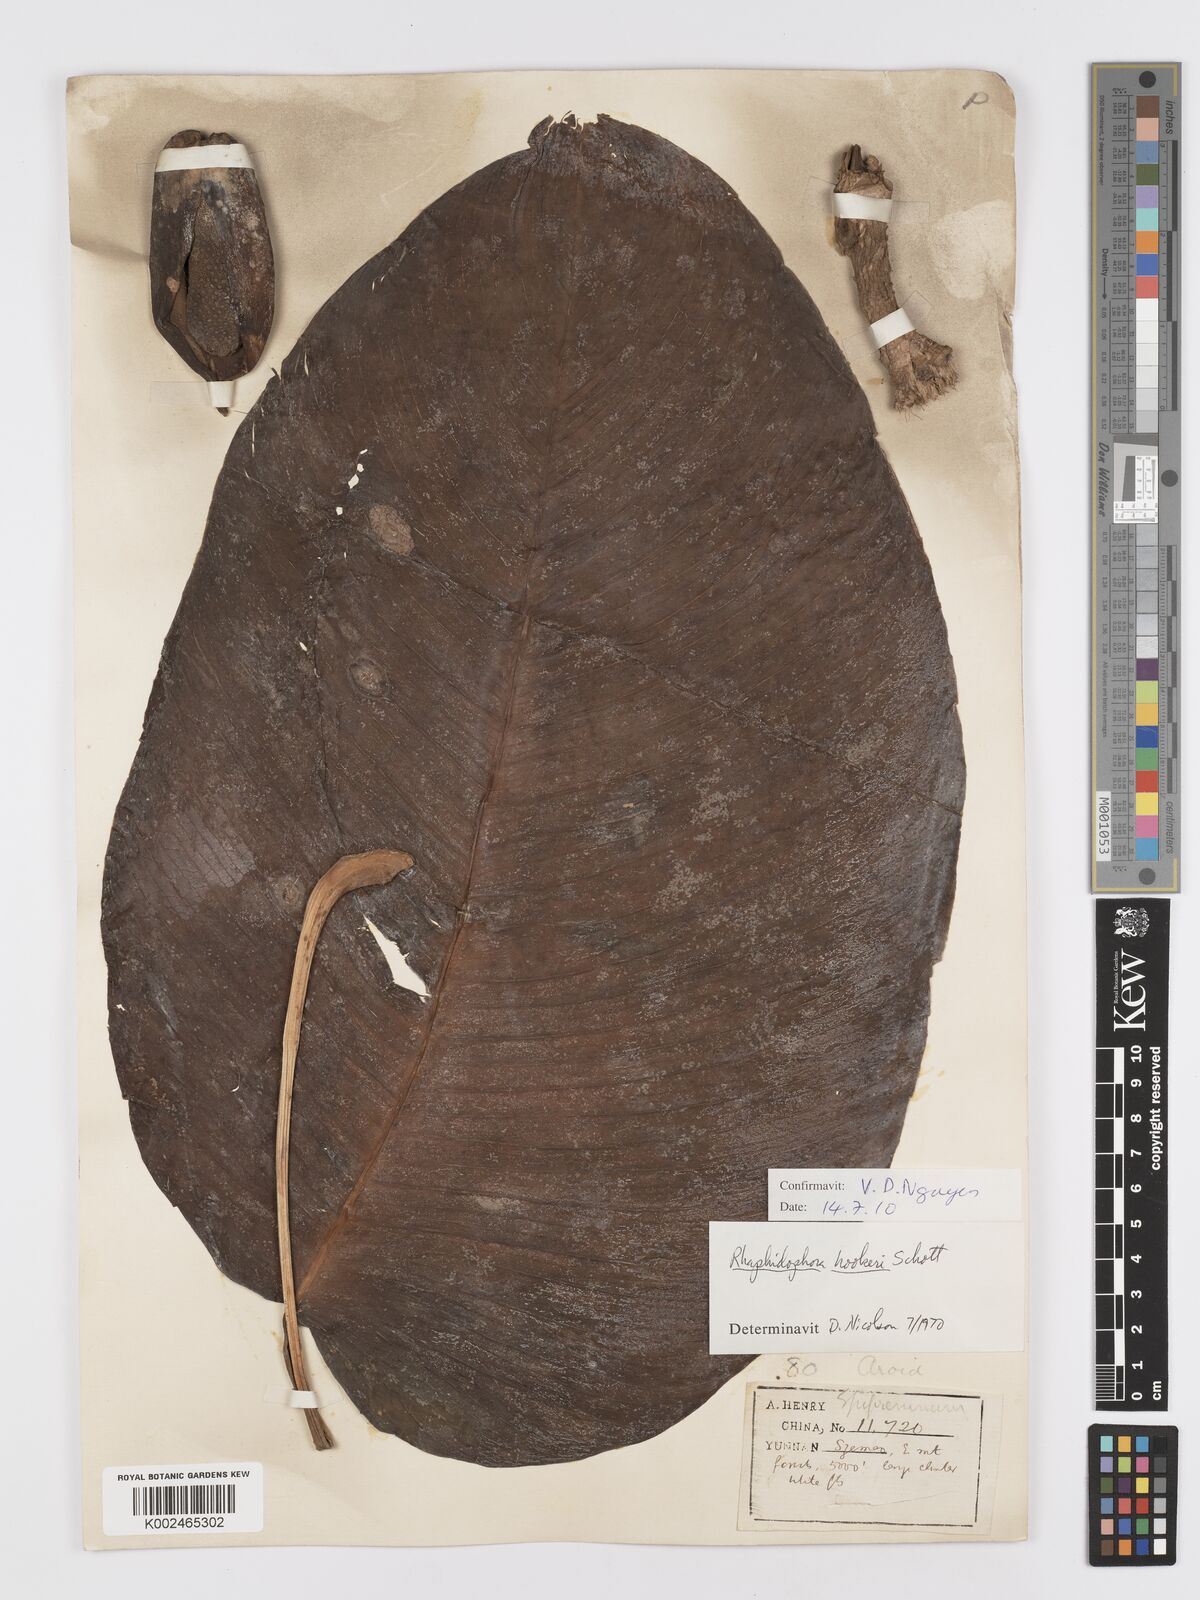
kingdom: Plantae
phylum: Tracheophyta
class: Liliopsida
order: Alismatales
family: Araceae
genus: Rhaphidophora
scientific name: Rhaphidophora hookeri
